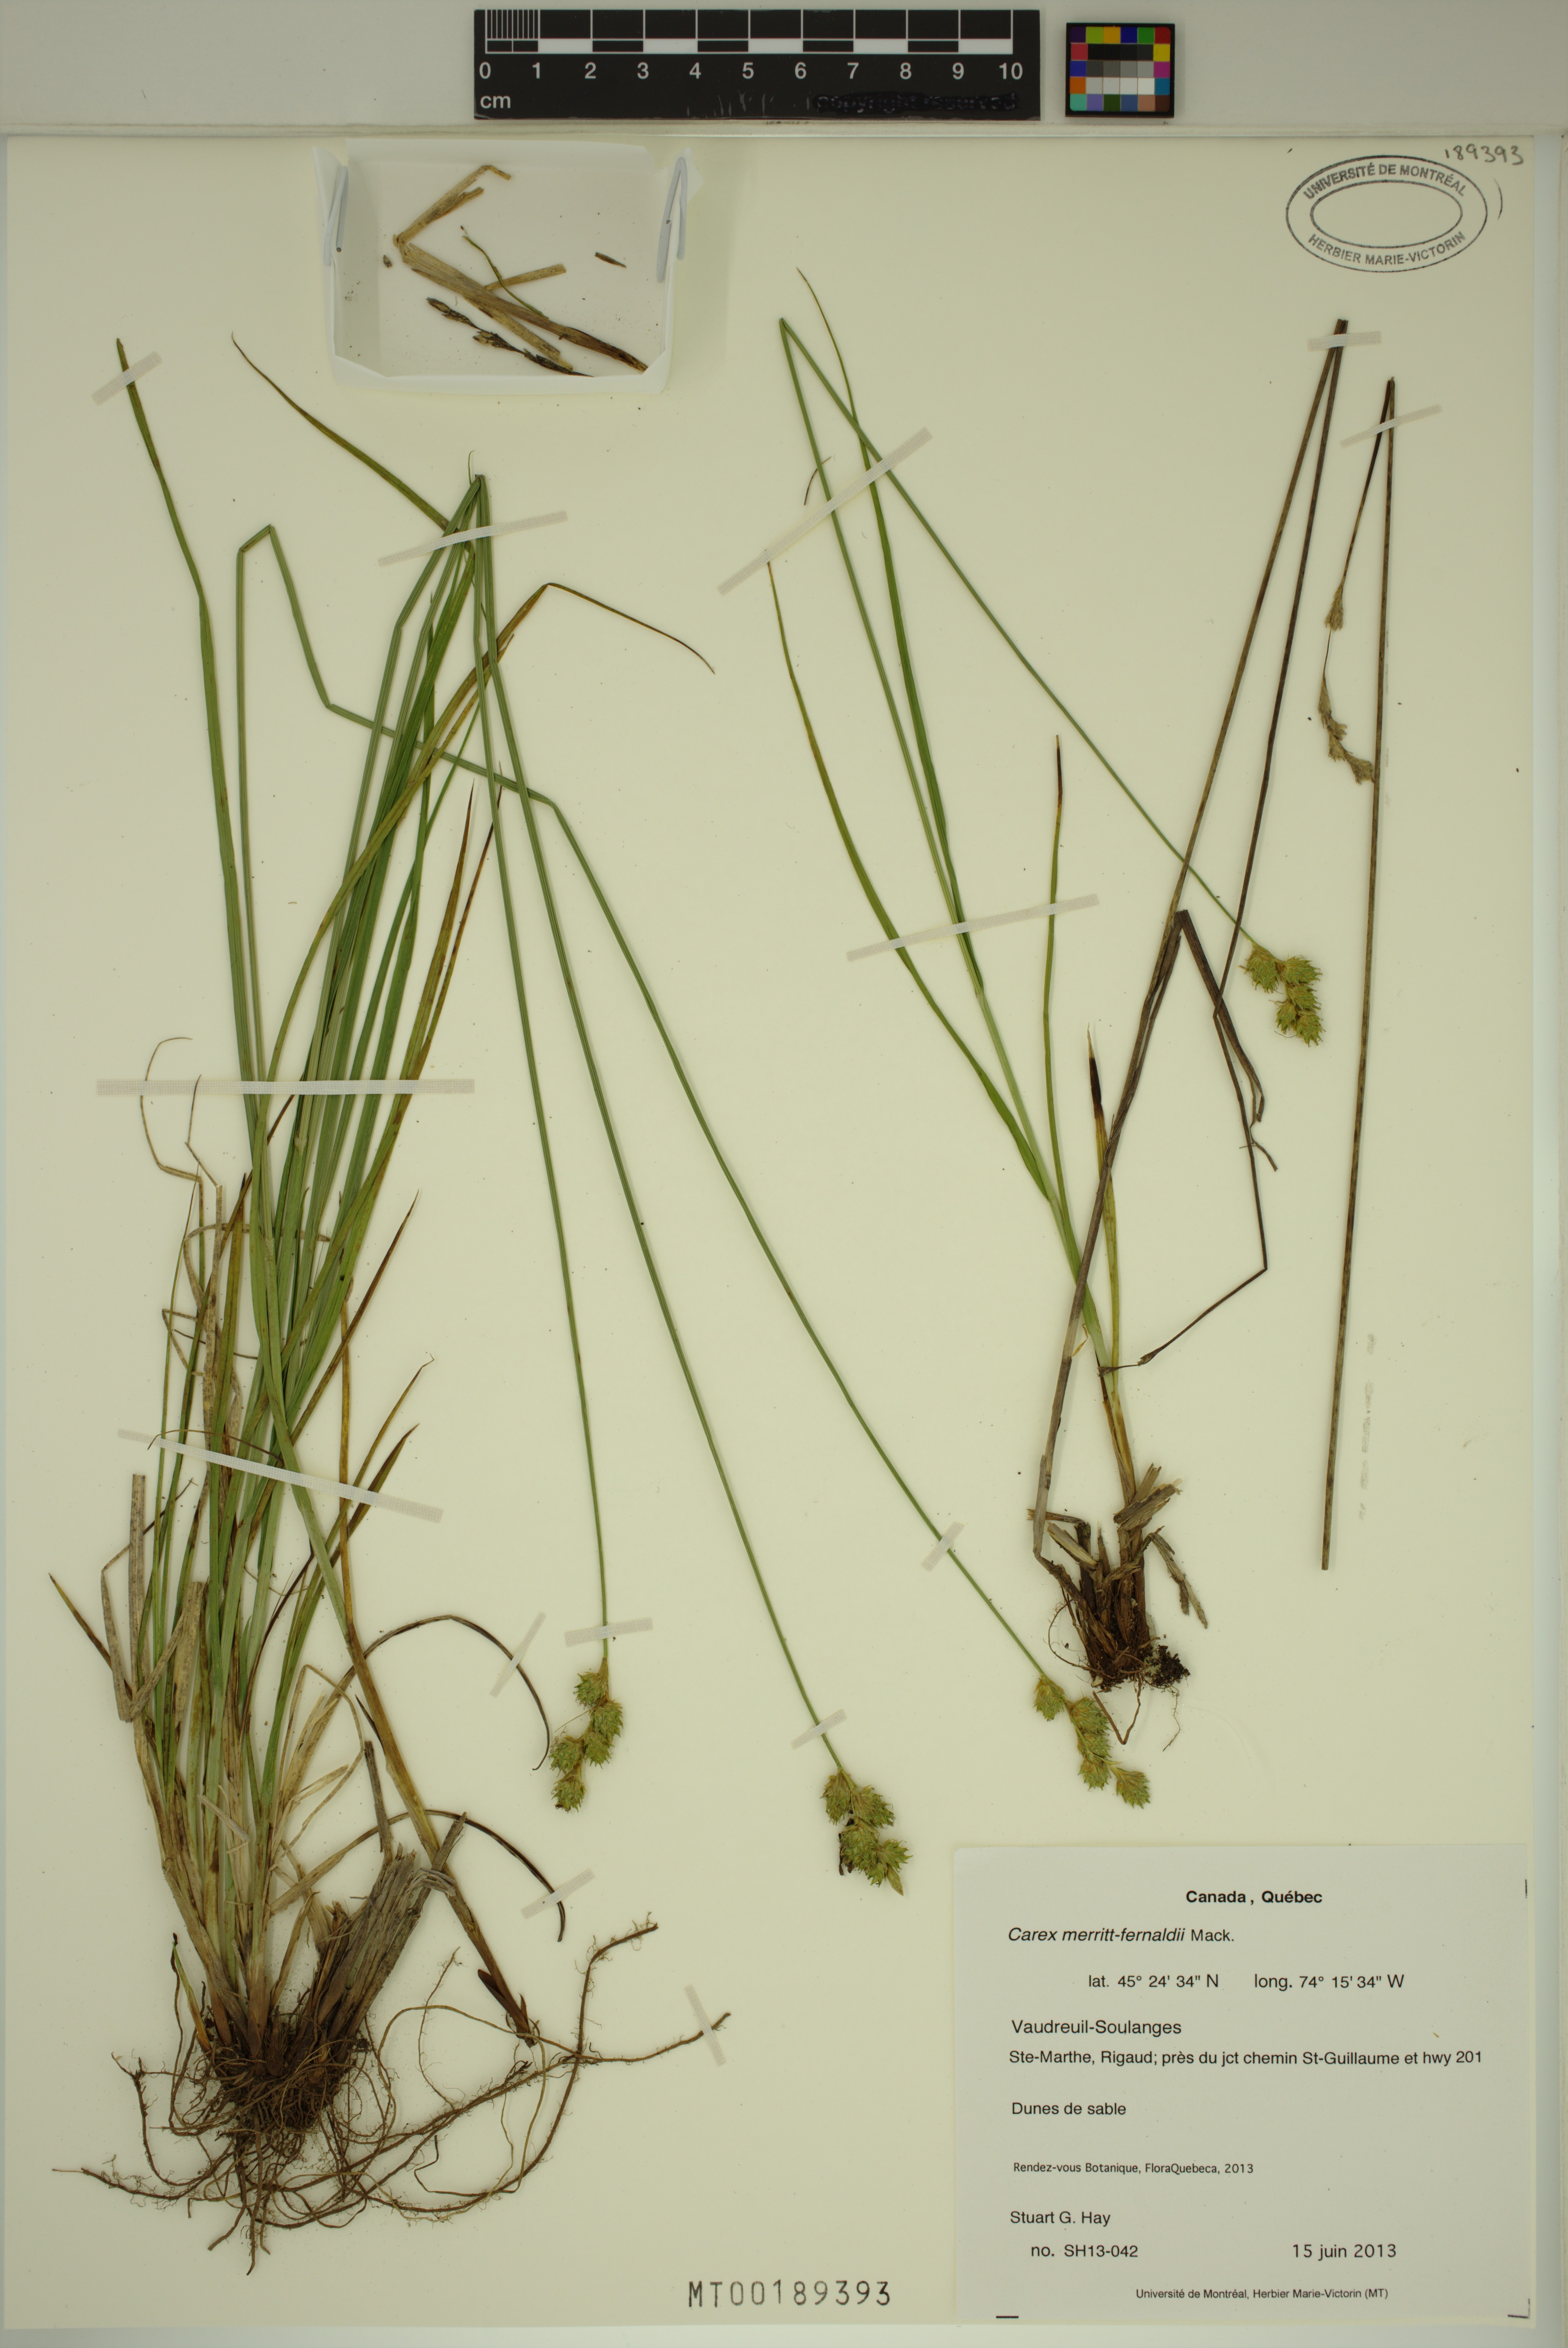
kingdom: Plantae
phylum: Tracheophyta
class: Liliopsida
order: Poales
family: Cyperaceae
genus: Carex
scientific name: Carex merritt-fernaldii
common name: Fernald's oval sedge
